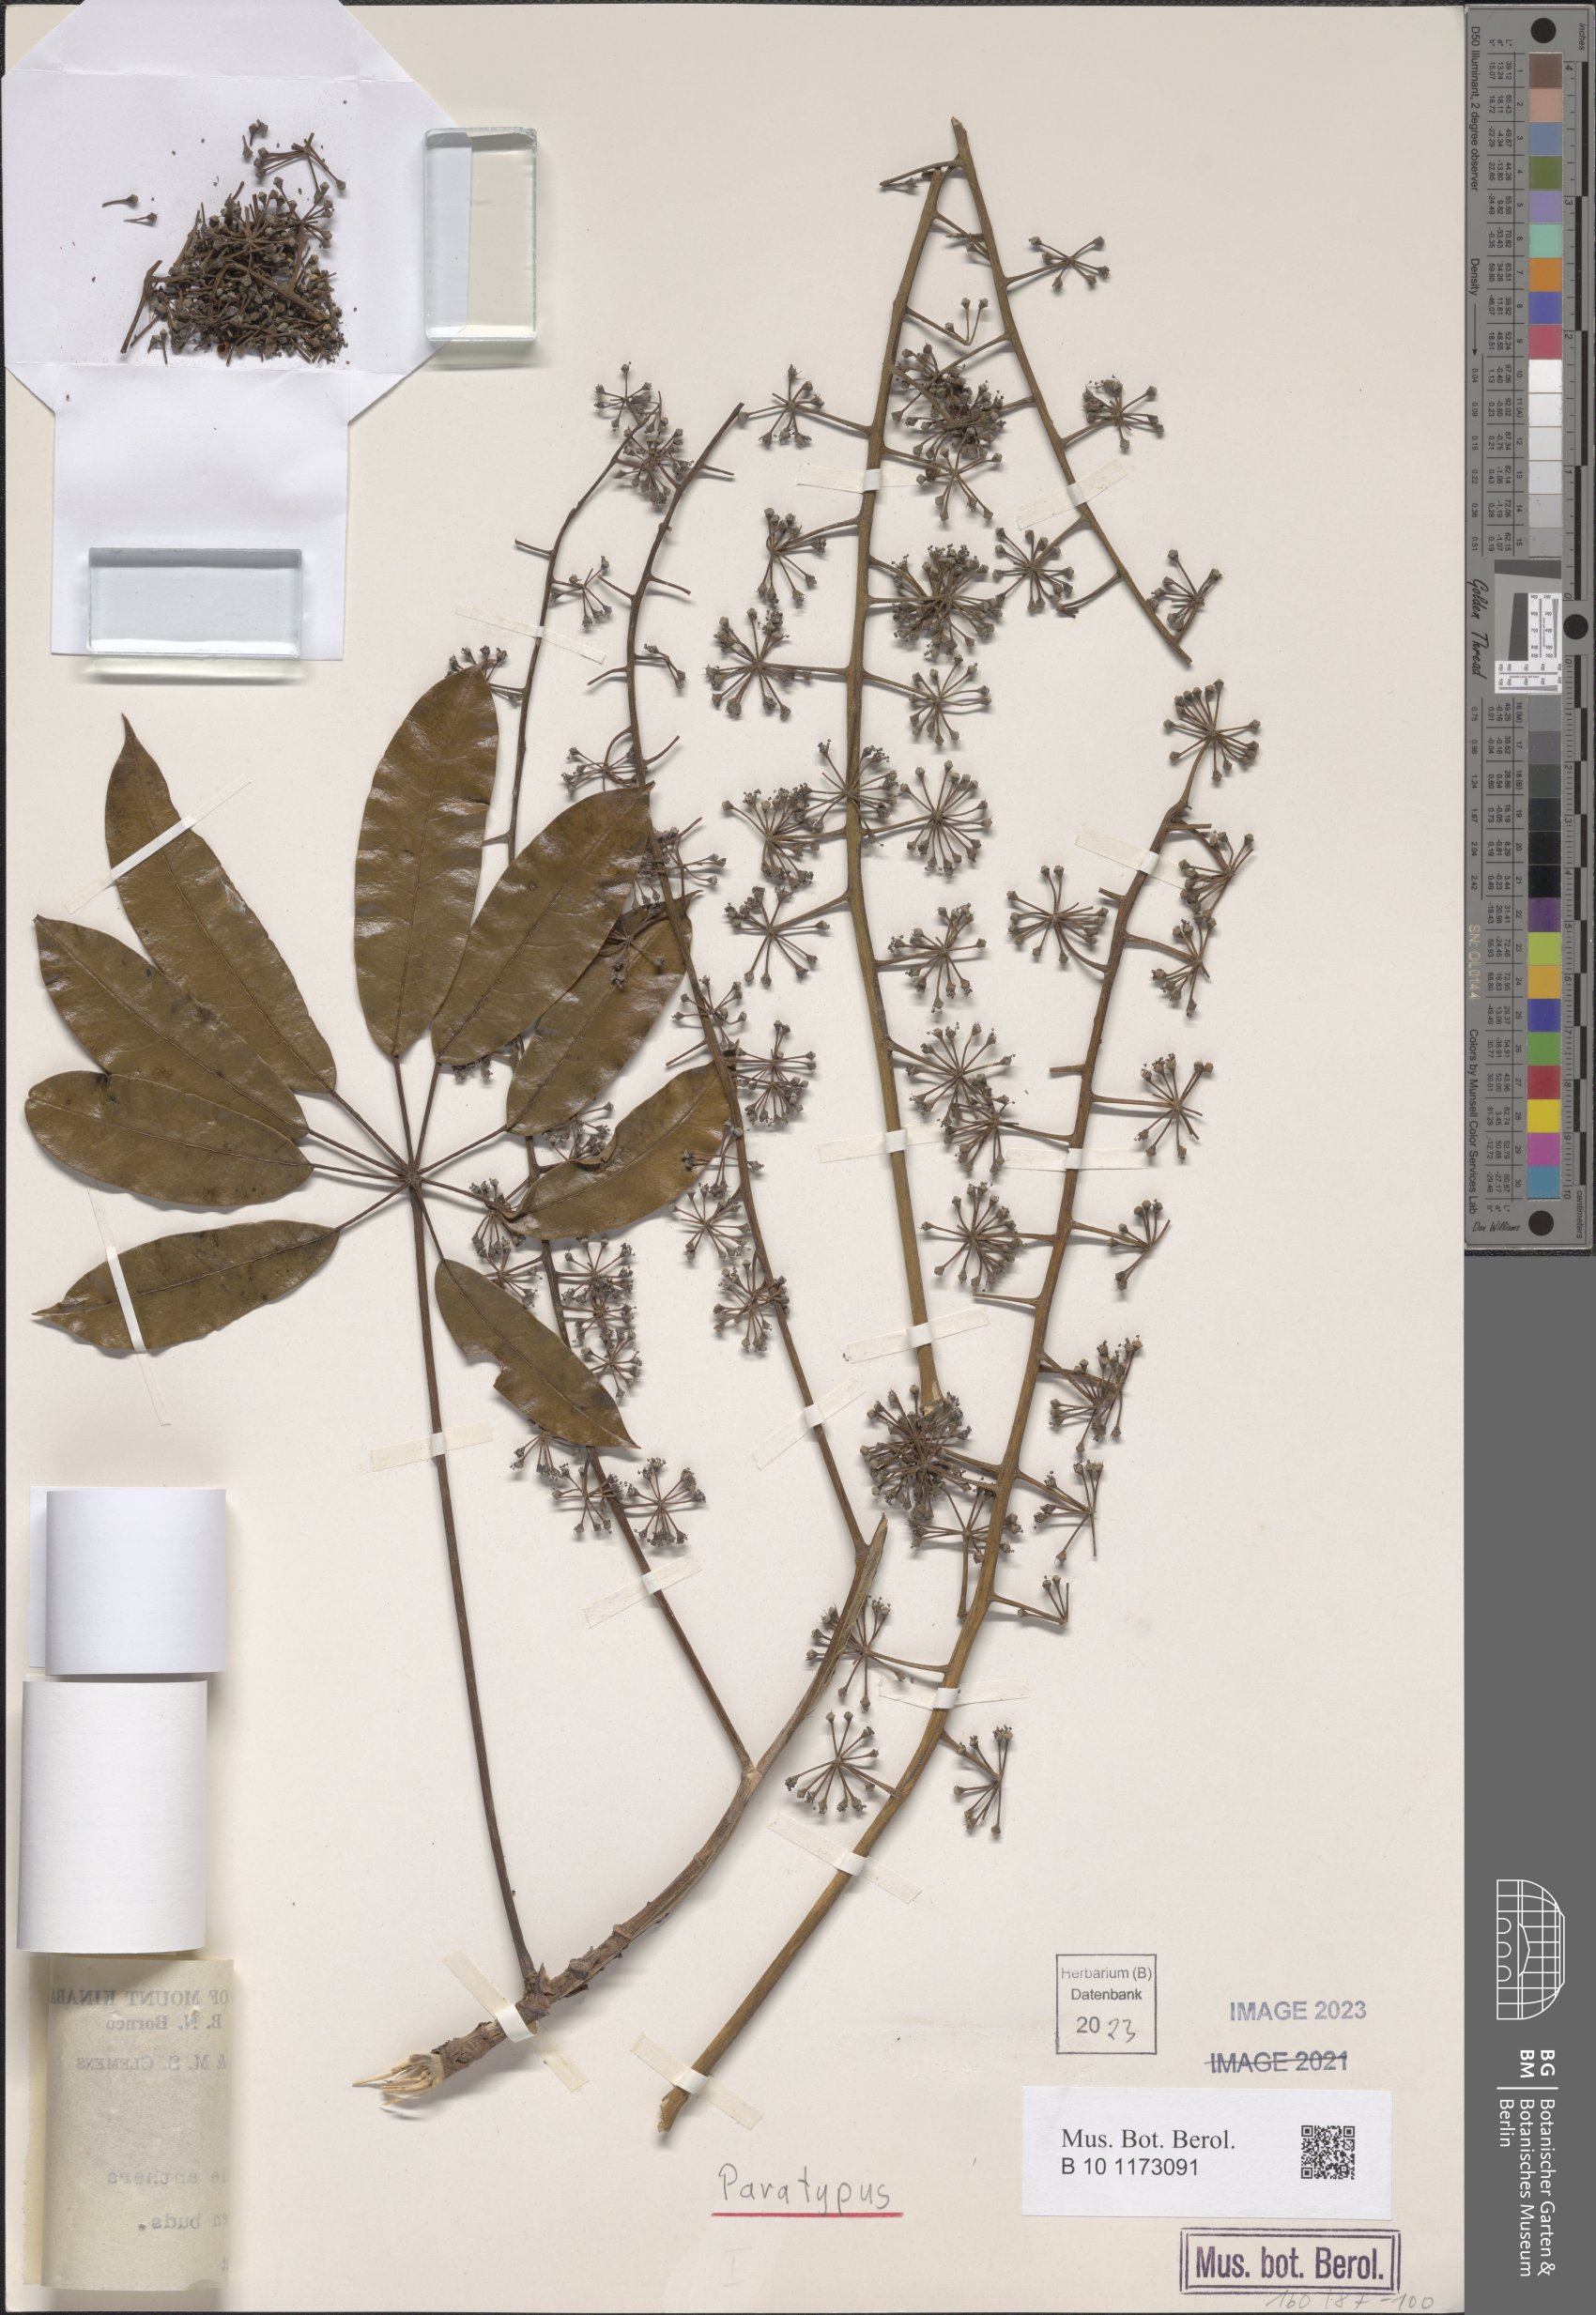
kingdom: Plantae
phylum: Tracheophyta
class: Magnoliopsida
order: Apiales
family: Araliaceae
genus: Heptapleurum
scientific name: Heptapleurum lineamentorum
